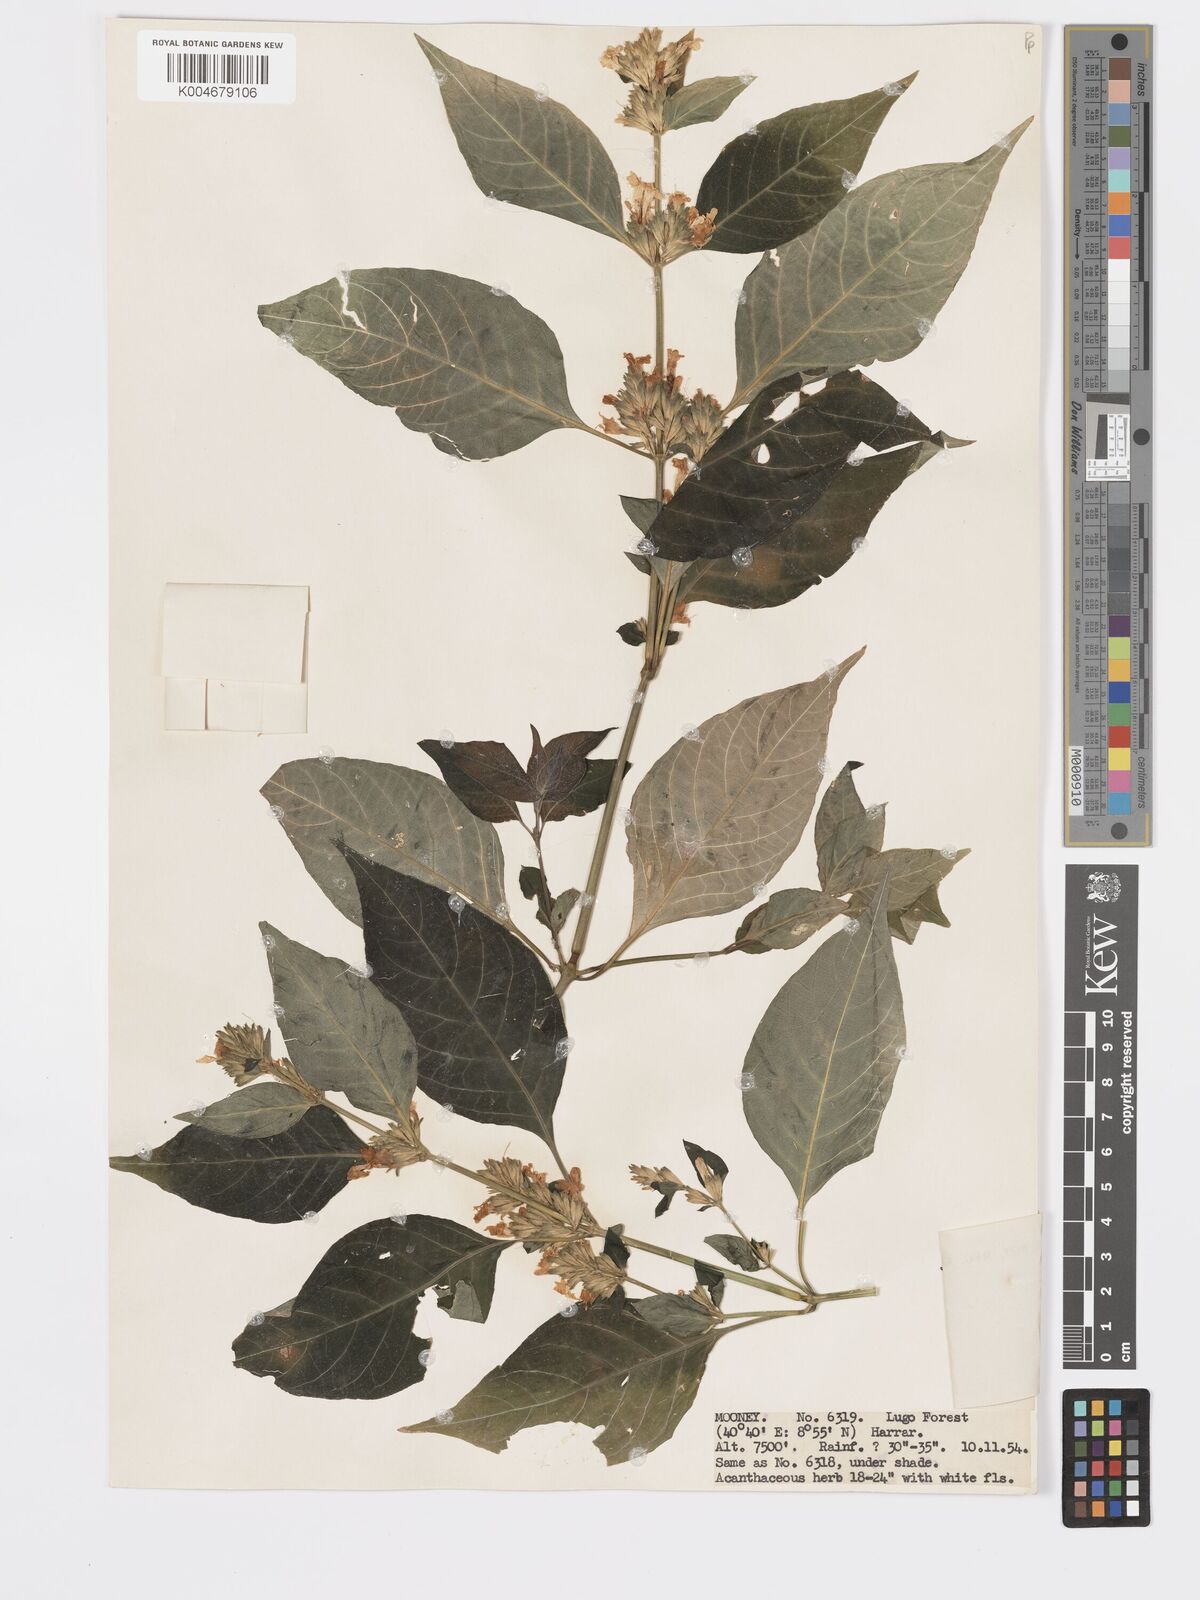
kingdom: Plantae
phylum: Tracheophyta
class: Magnoliopsida
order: Lamiales
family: Acanthaceae
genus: Hypoestes
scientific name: Hypoestes forskaolii
